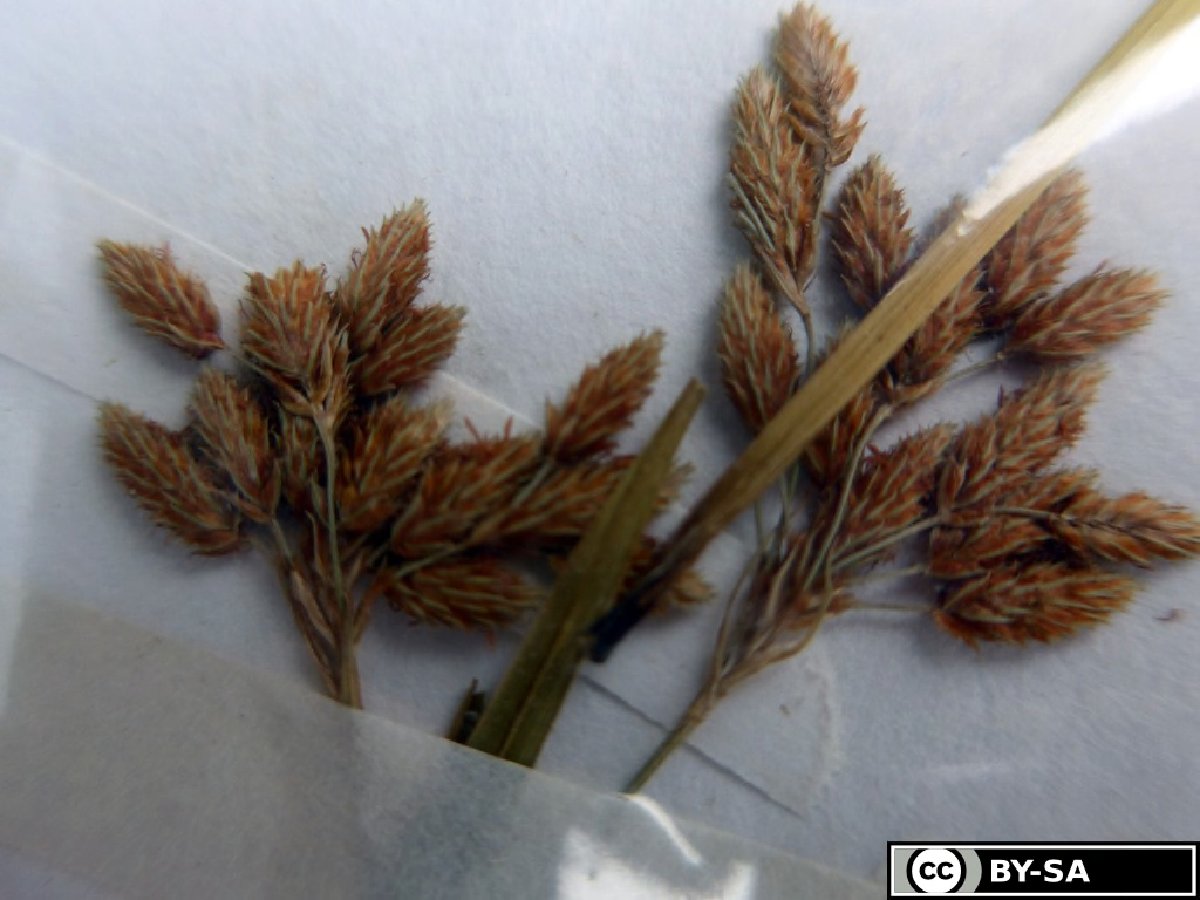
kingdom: Plantae
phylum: Tracheophyta
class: Liliopsida
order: Poales
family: Cyperaceae
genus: Scirpus
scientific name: Scirpus pendulus
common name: Nodding bulrush
